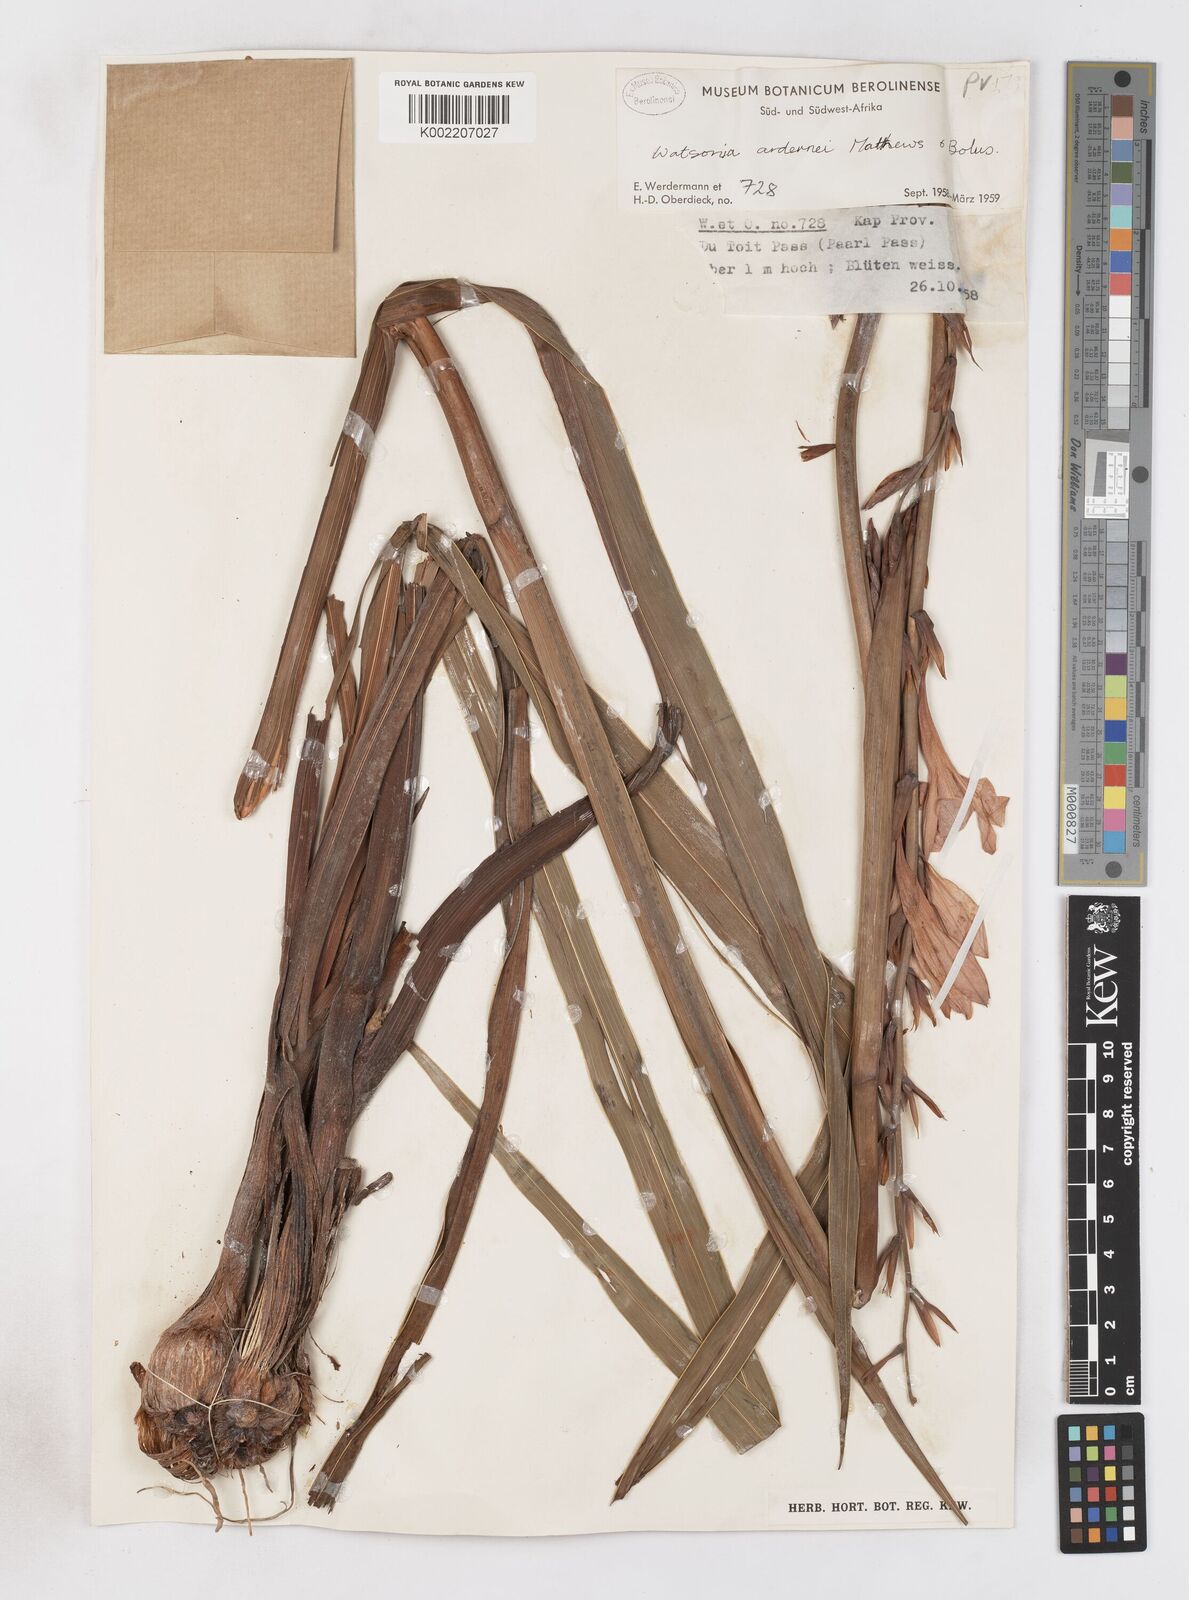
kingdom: Plantae
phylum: Tracheophyta
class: Liliopsida
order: Asparagales
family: Iridaceae
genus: Watsonia
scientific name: Watsonia borbonica
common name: Bugle-lily
